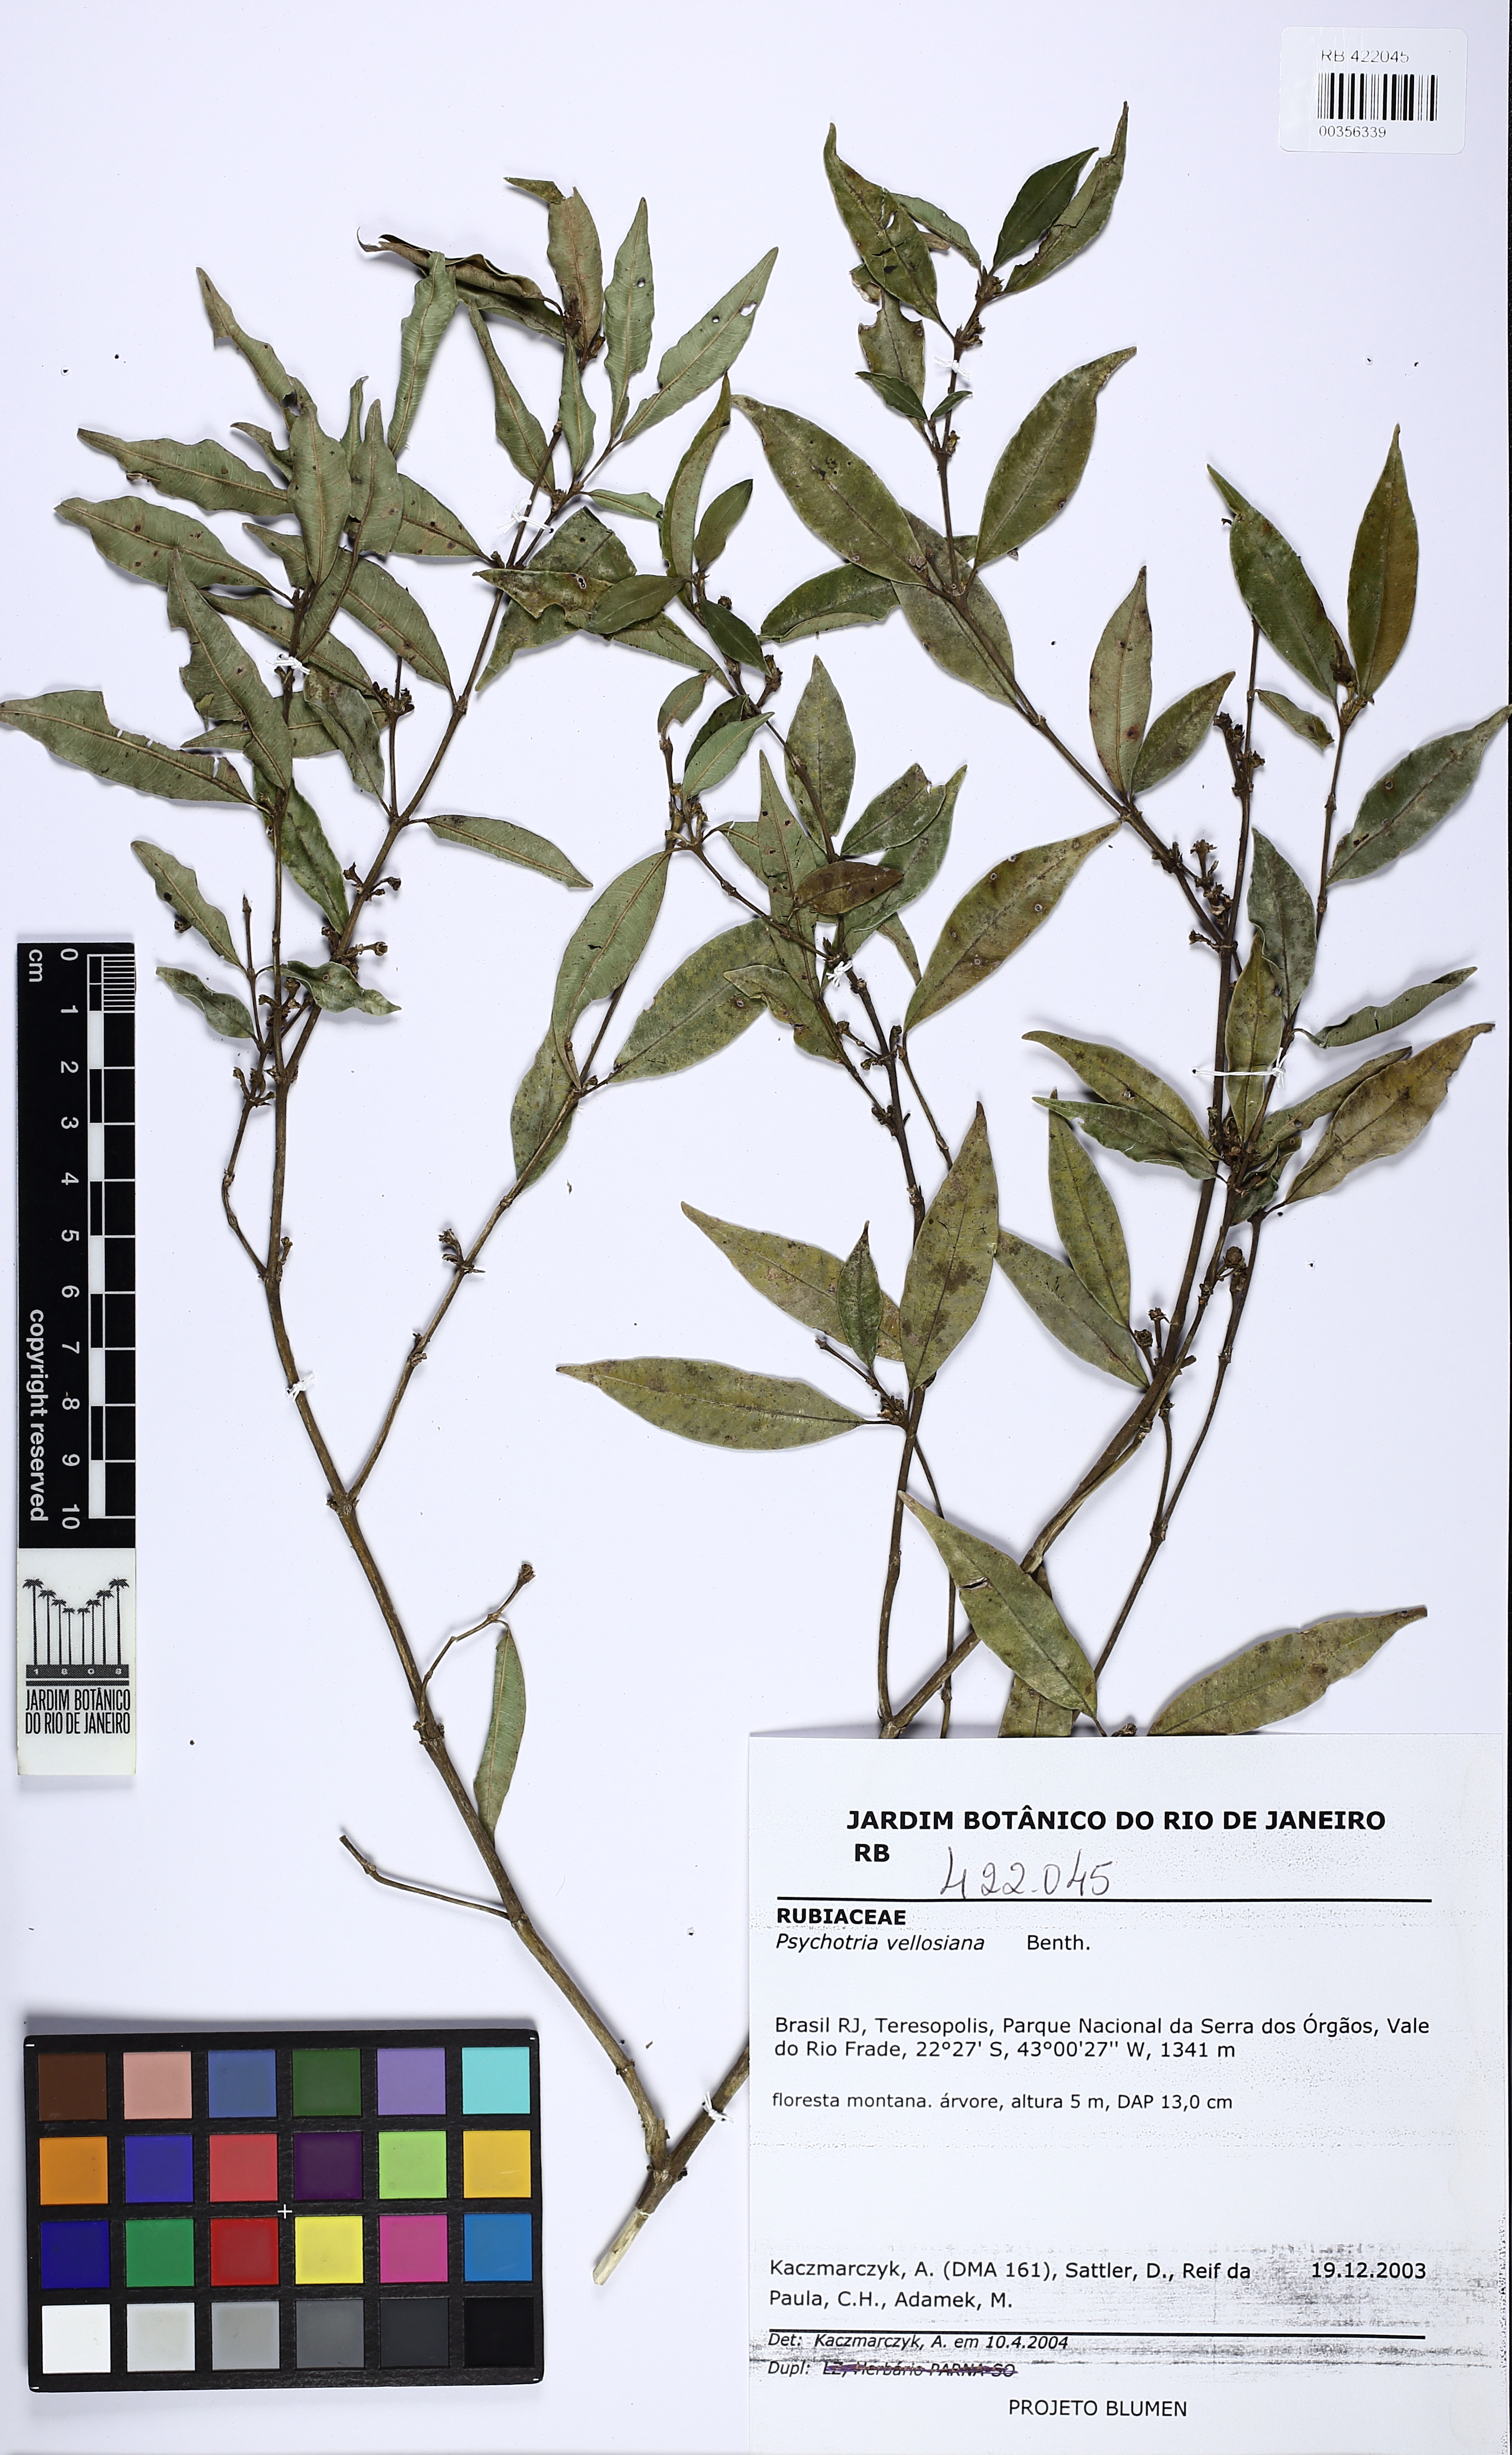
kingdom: Plantae
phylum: Tracheophyta
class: Magnoliopsida
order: Gentianales
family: Rubiaceae
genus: Palicourea
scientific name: Palicourea sessilis
